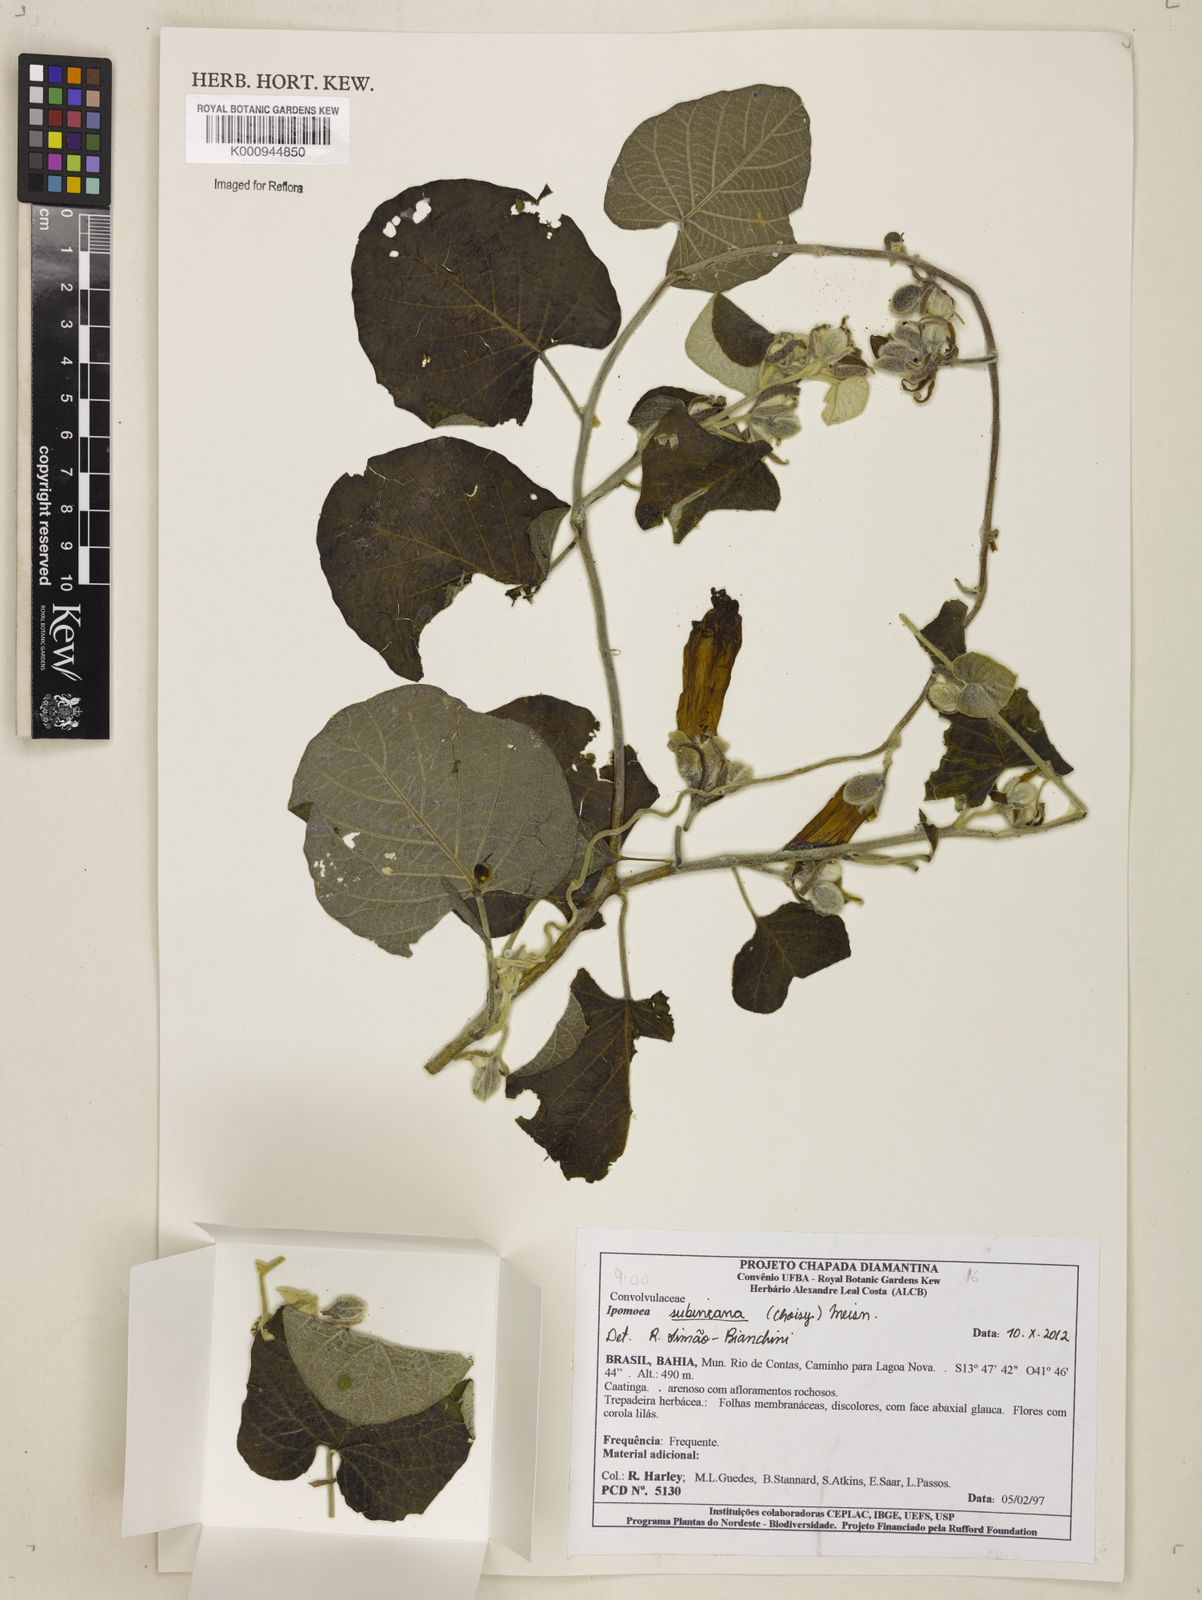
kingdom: Plantae
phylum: Tracheophyta
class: Magnoliopsida
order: Solanales
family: Convolvulaceae
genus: Ipomoea
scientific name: Ipomoea brasiliana
